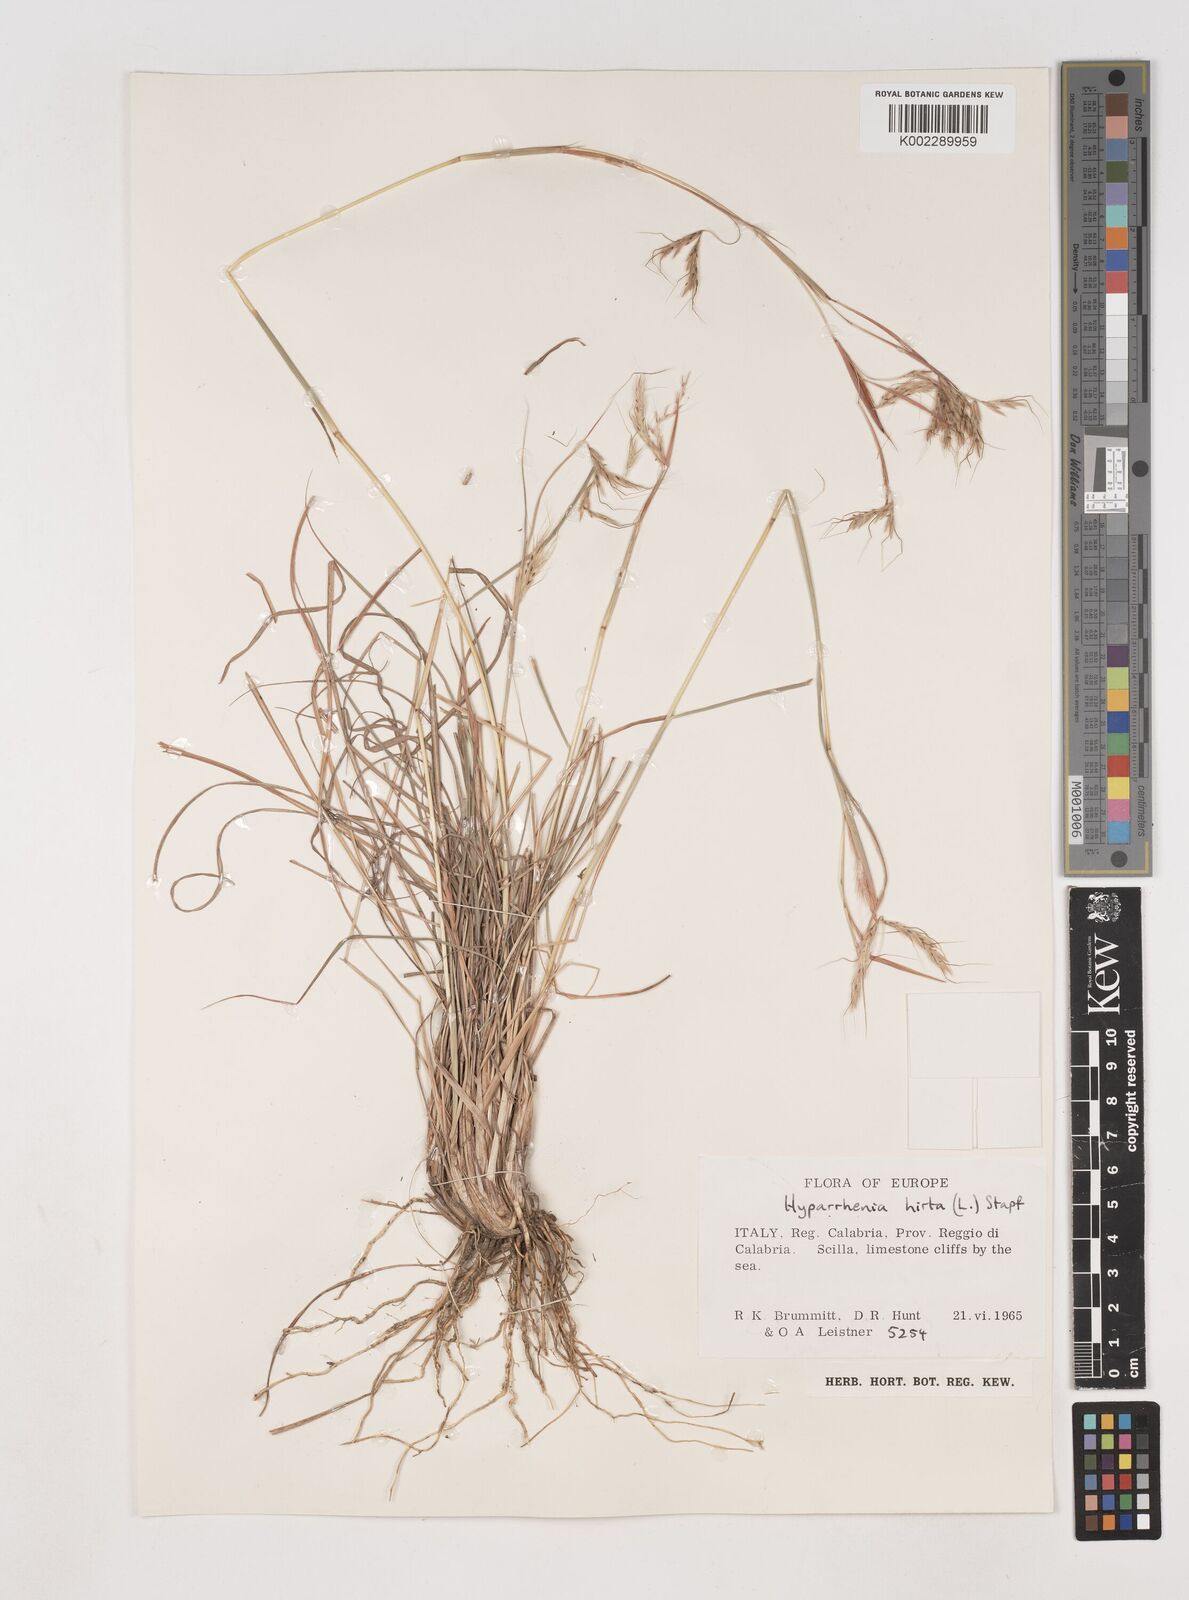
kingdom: Plantae
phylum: Tracheophyta
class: Liliopsida
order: Poales
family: Poaceae
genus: Hyparrhenia
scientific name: Hyparrhenia hirta
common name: Thatching grass
